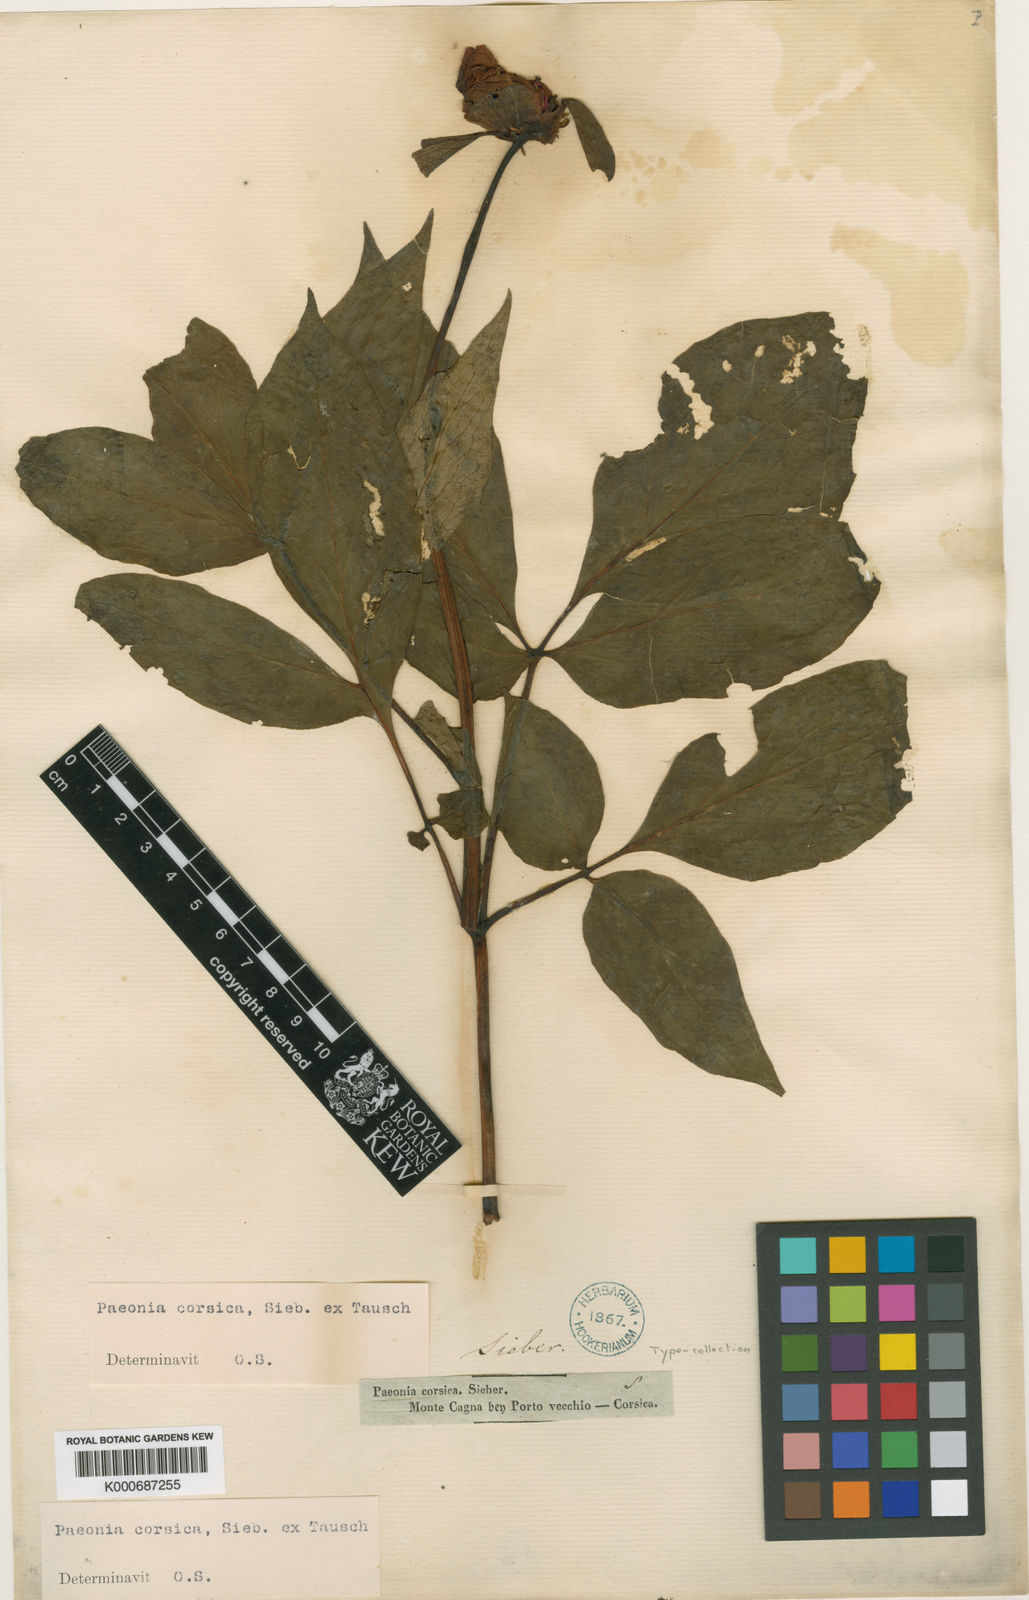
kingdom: Plantae
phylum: Tracheophyta
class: Magnoliopsida
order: Saxifragales
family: Paeoniaceae
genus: Paeonia
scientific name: Paeonia corsica
